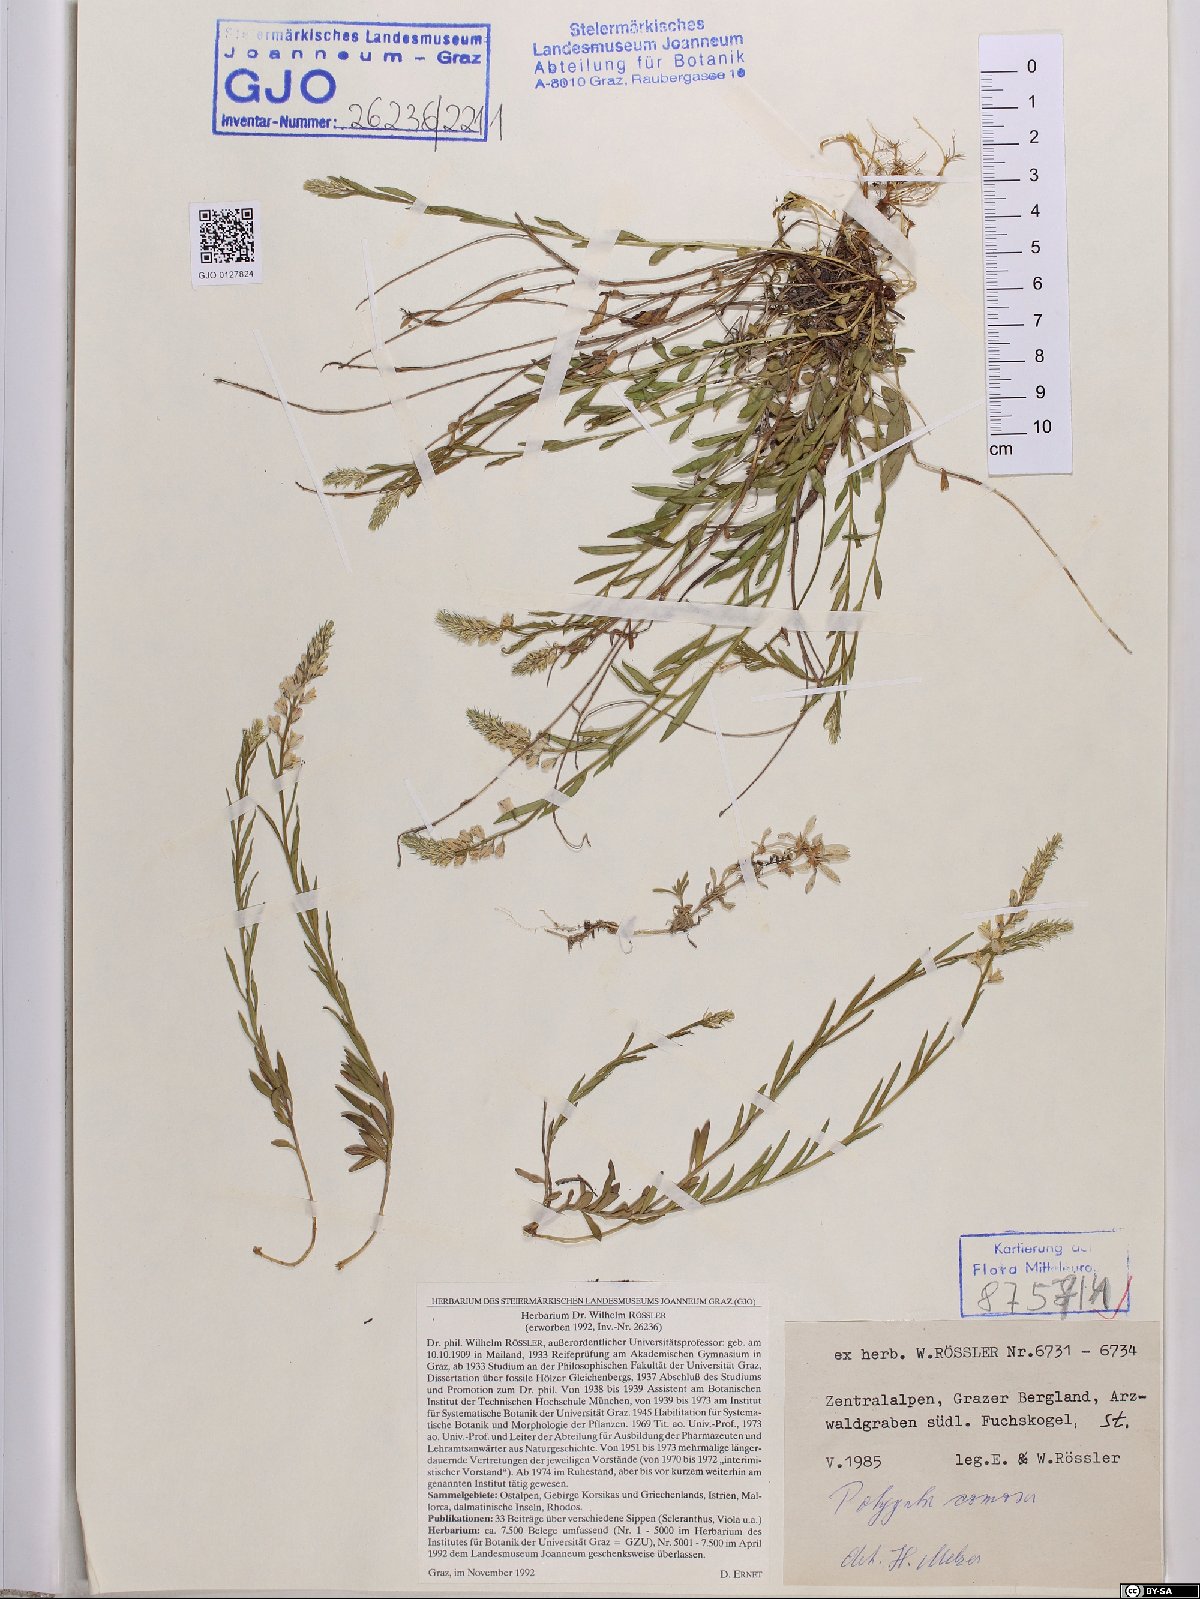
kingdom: Plantae
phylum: Tracheophyta
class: Magnoliopsida
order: Fabales
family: Polygalaceae
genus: Polygala
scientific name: Polygala comosa
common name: Tufted milkwort
